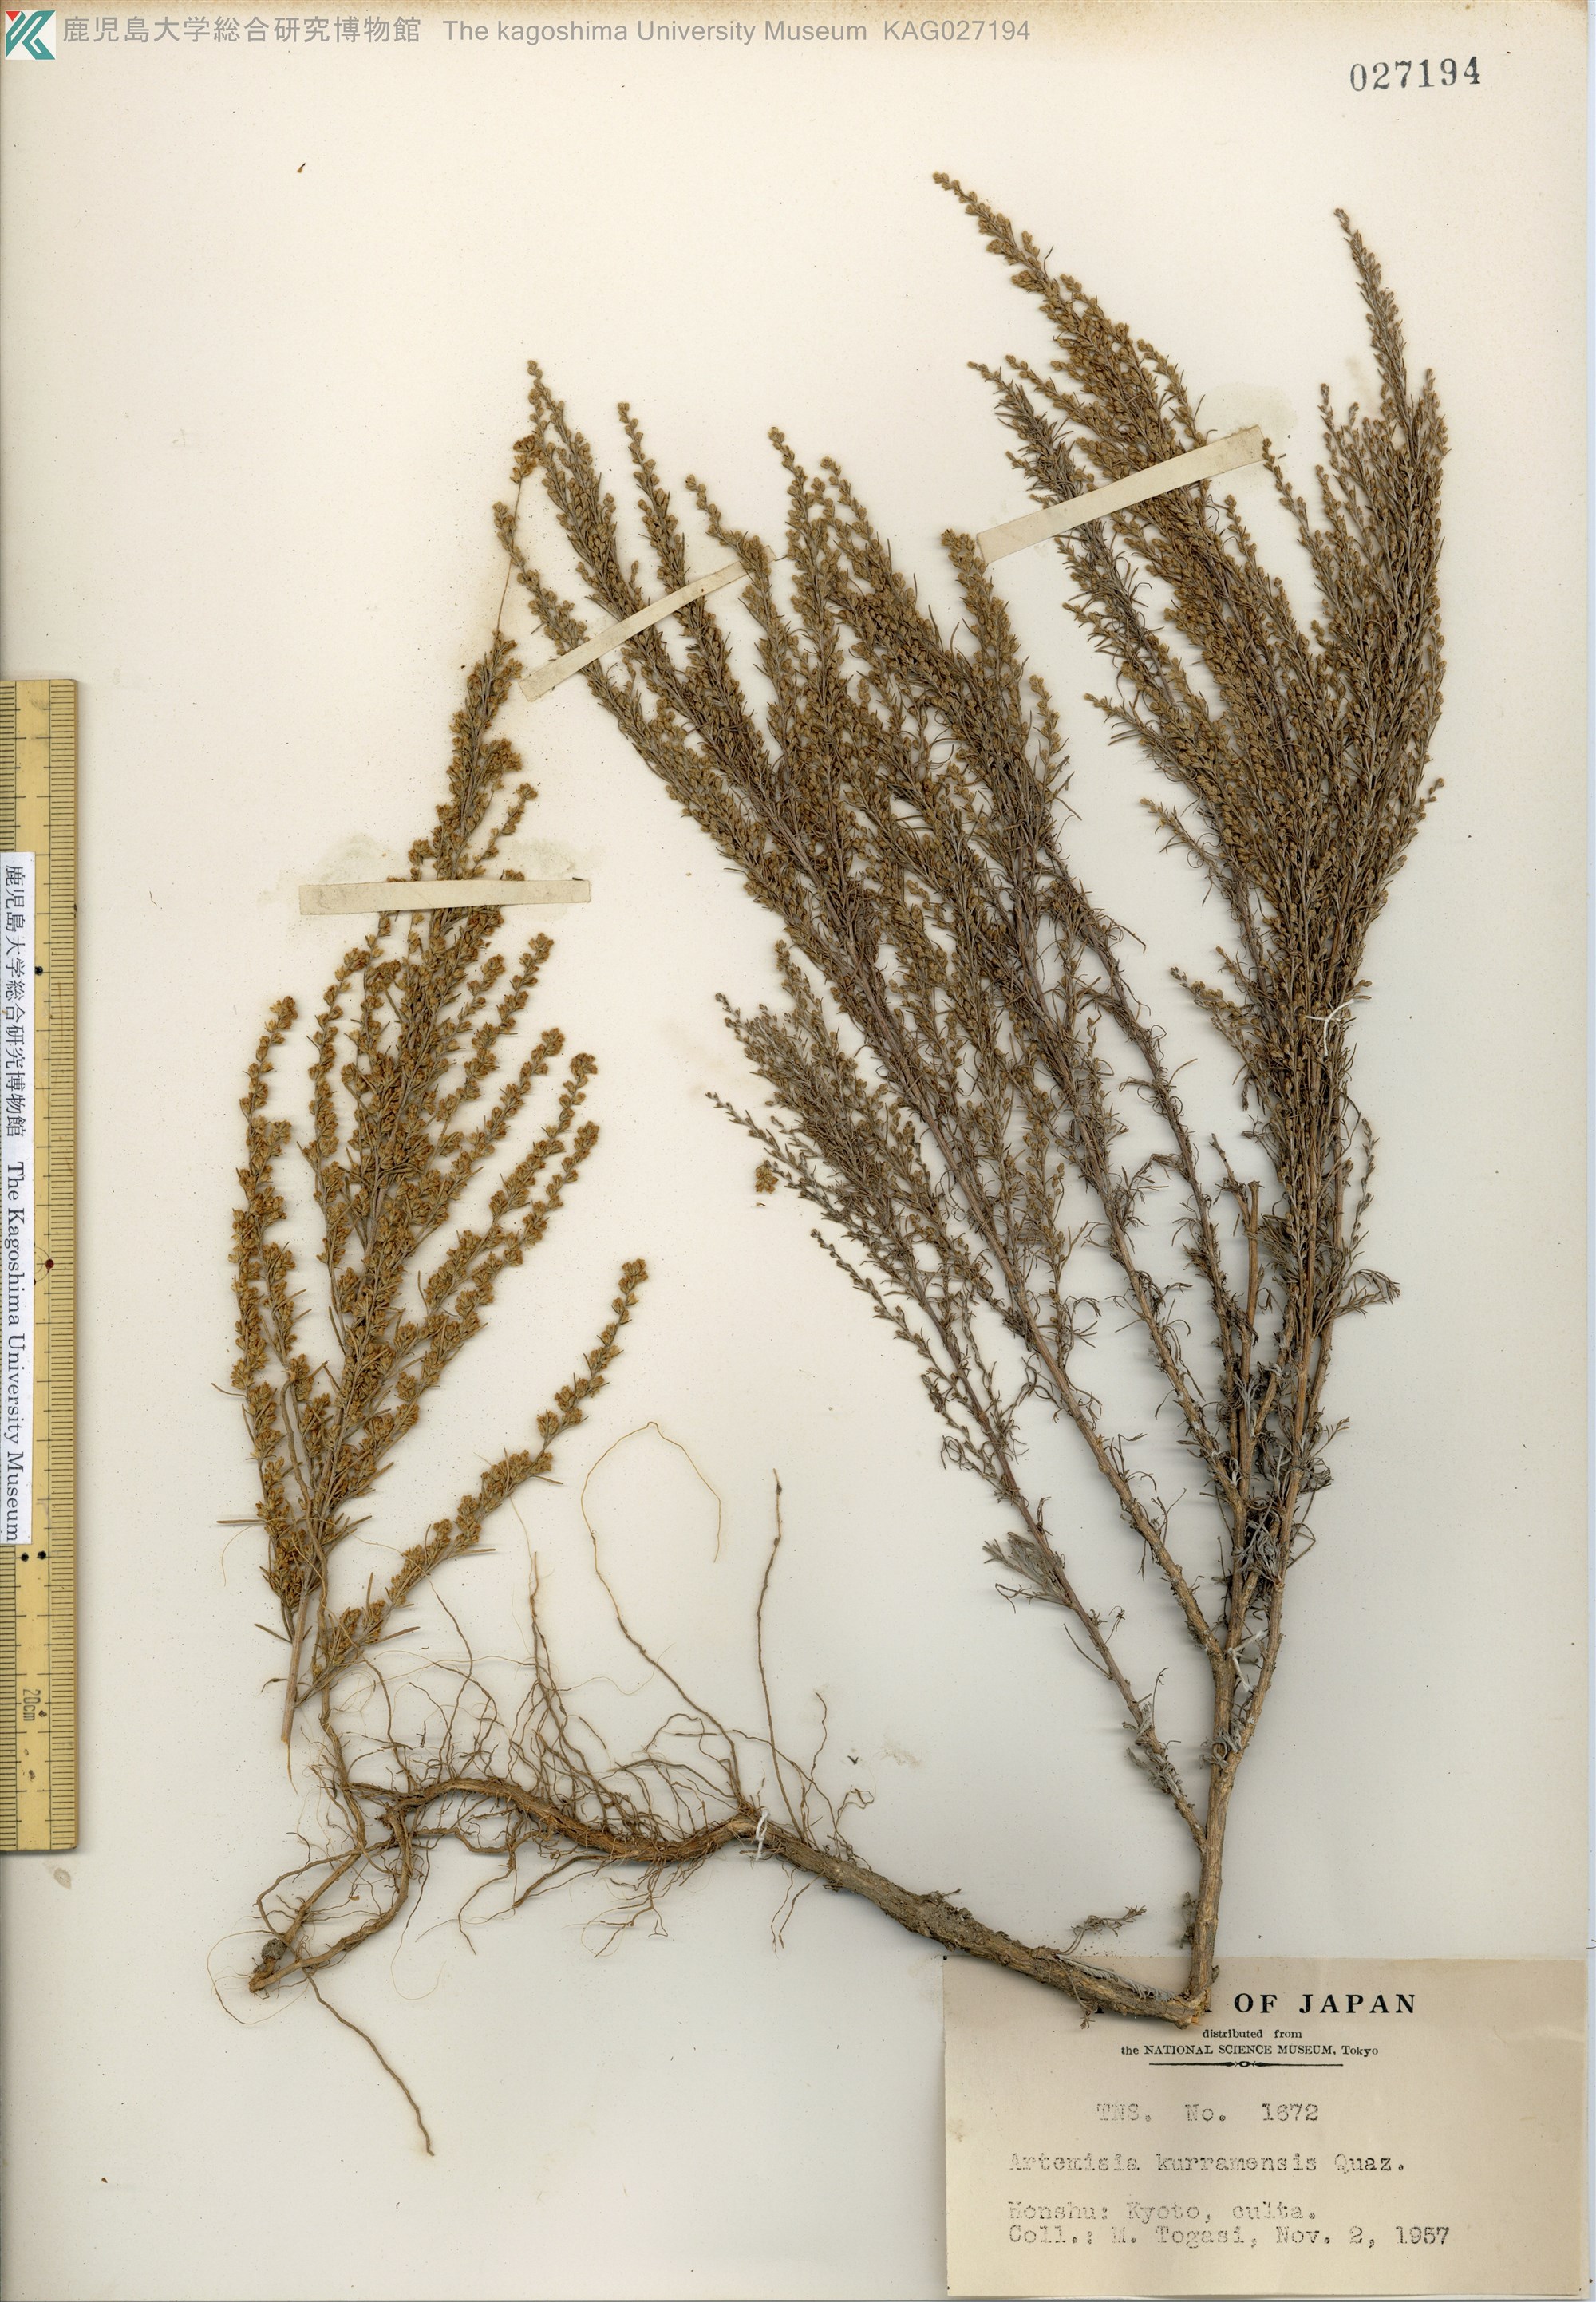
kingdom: Plantae
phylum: Tracheophyta
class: Magnoliopsida
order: Asterales
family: Asteraceae
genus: Artemisia
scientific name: Artemisia kurramensis
